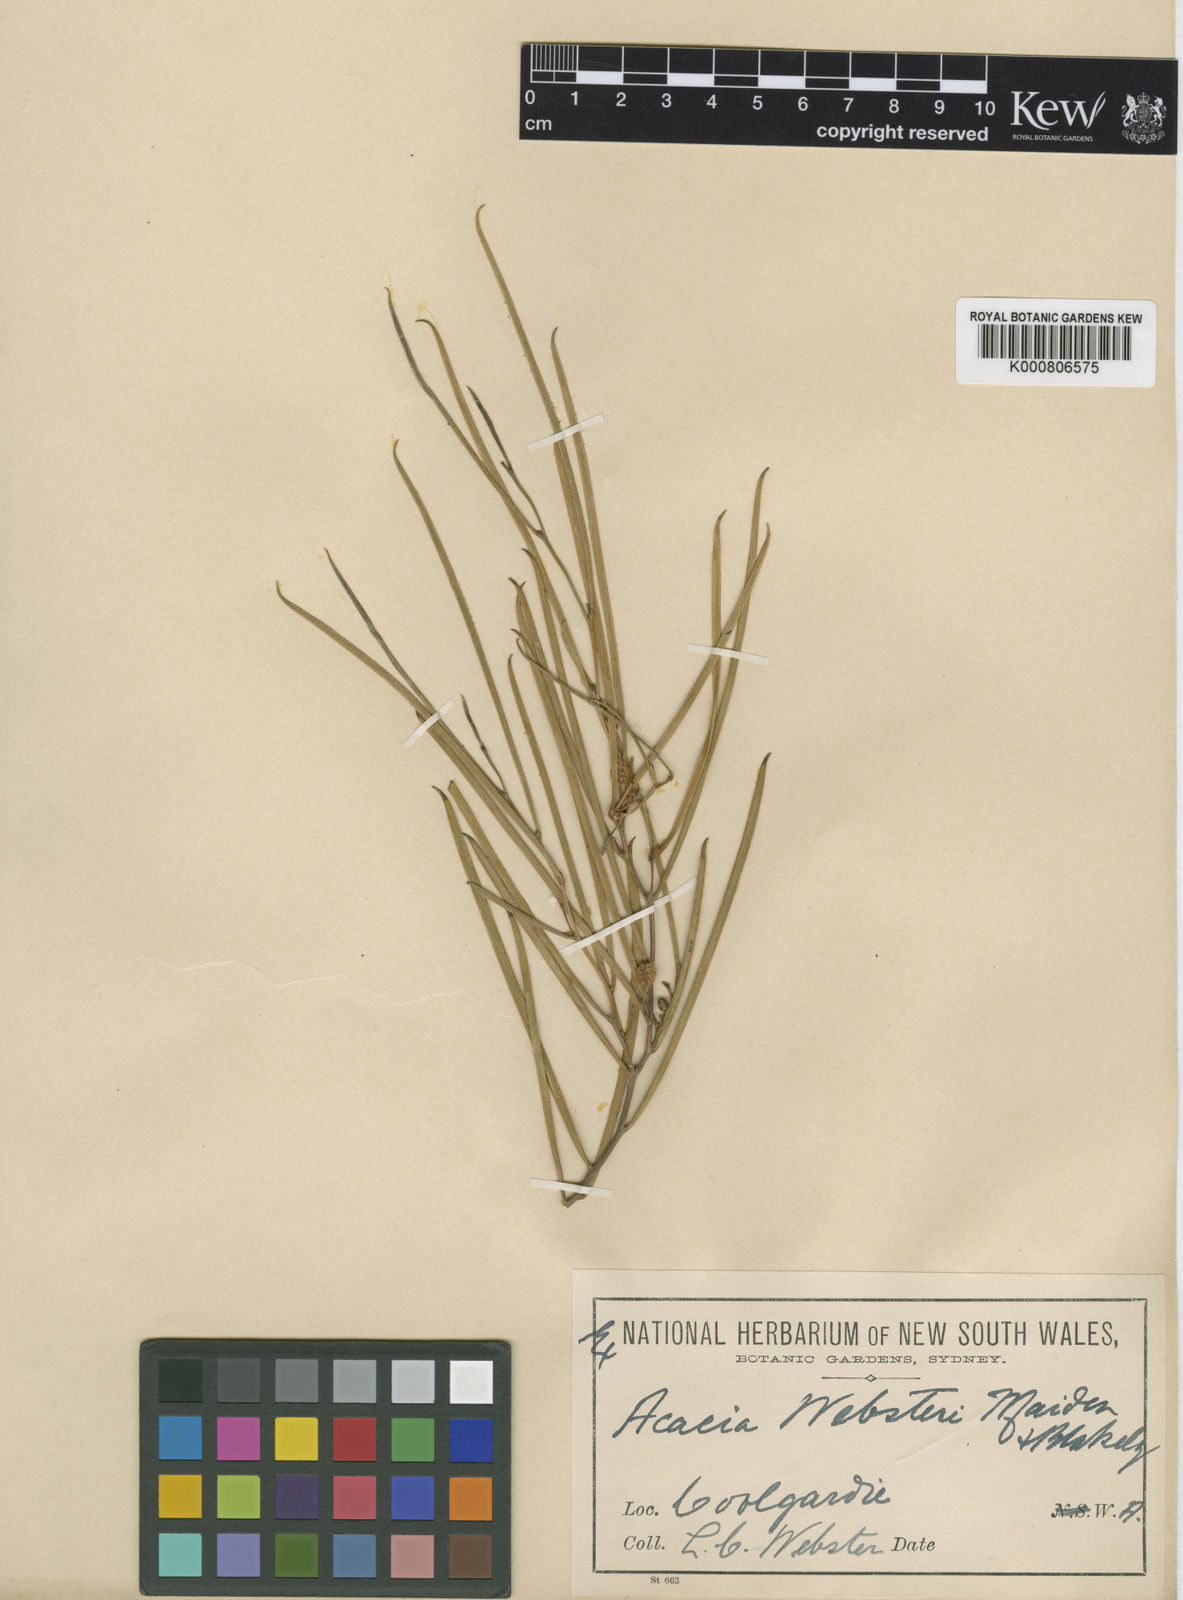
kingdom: Plantae
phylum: Tracheophyta
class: Magnoliopsida
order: Fabales
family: Fabaceae
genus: Acacia
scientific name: Acacia websteri
